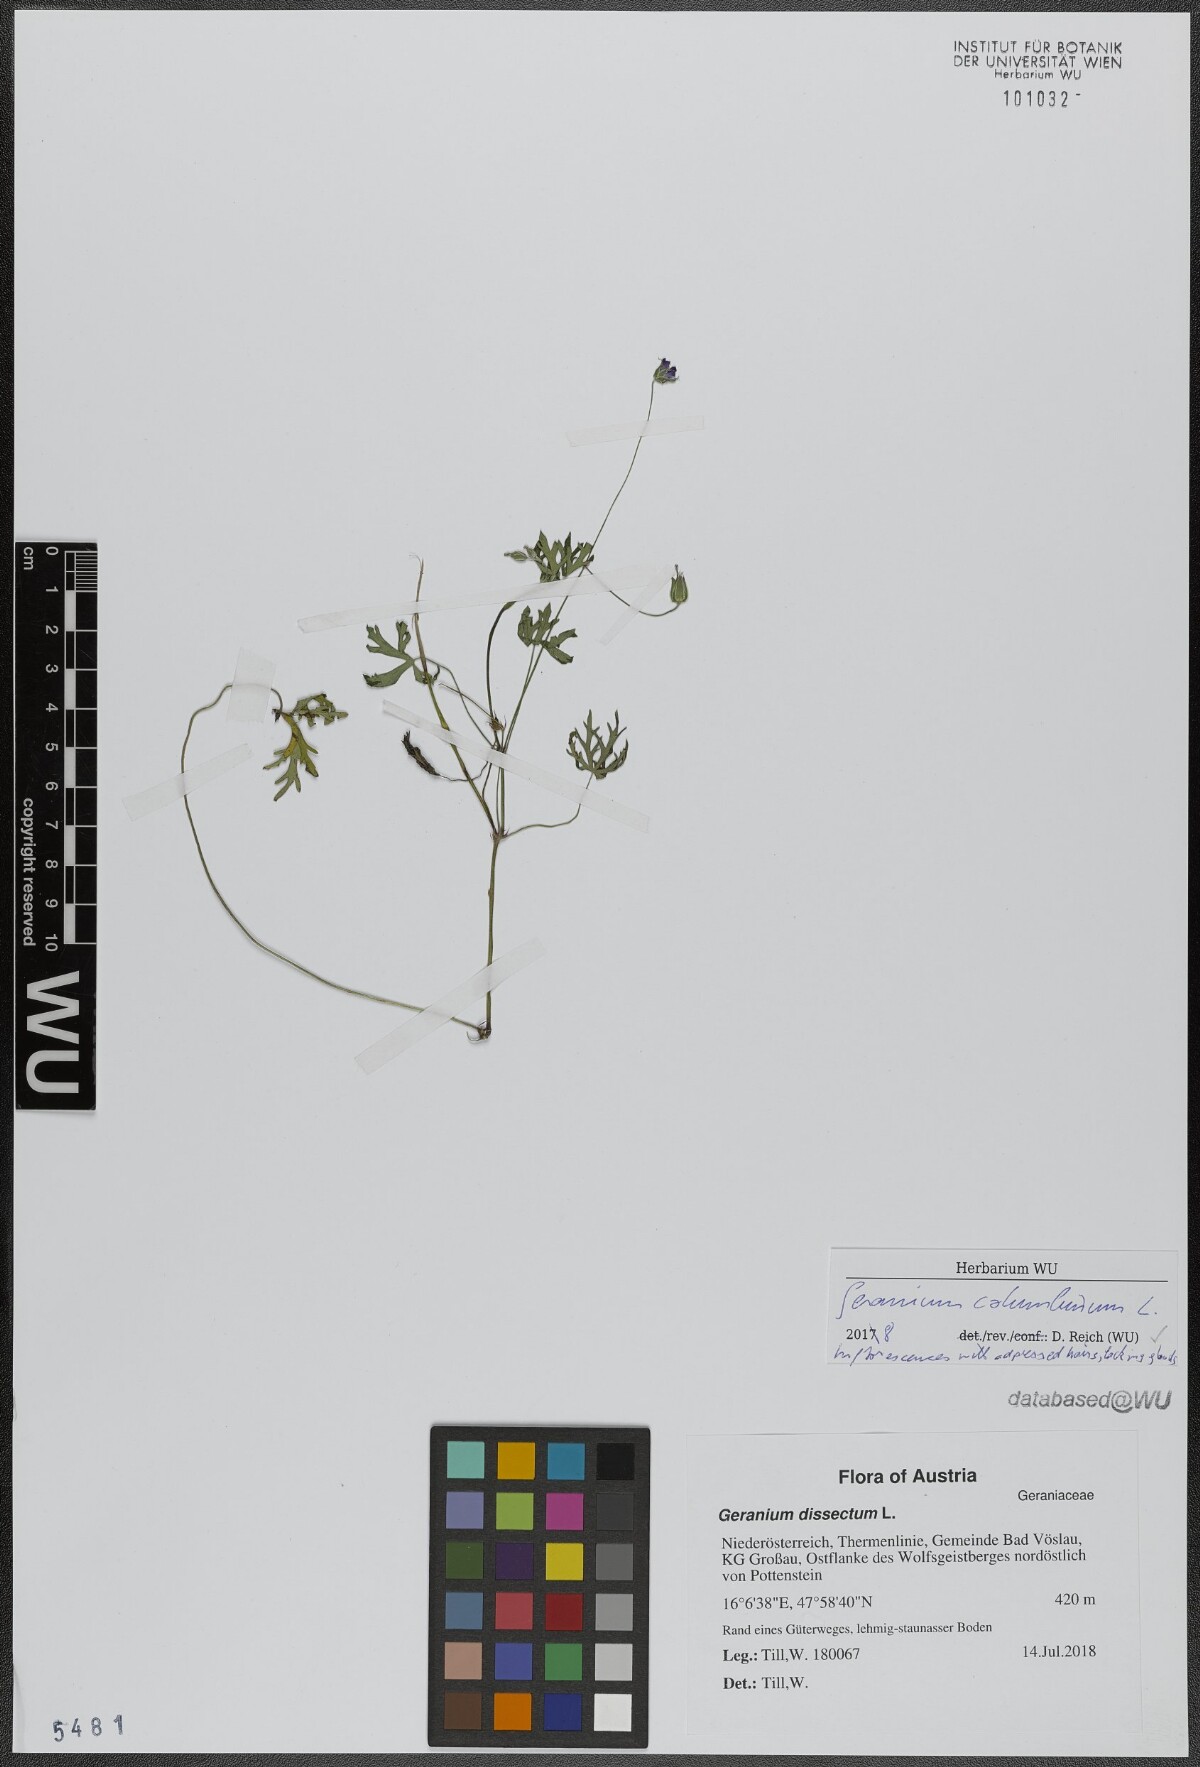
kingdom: Plantae
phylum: Tracheophyta
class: Magnoliopsida
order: Geraniales
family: Geraniaceae
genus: Geranium
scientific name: Geranium columbinum
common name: Long-stalked crane's-bill
